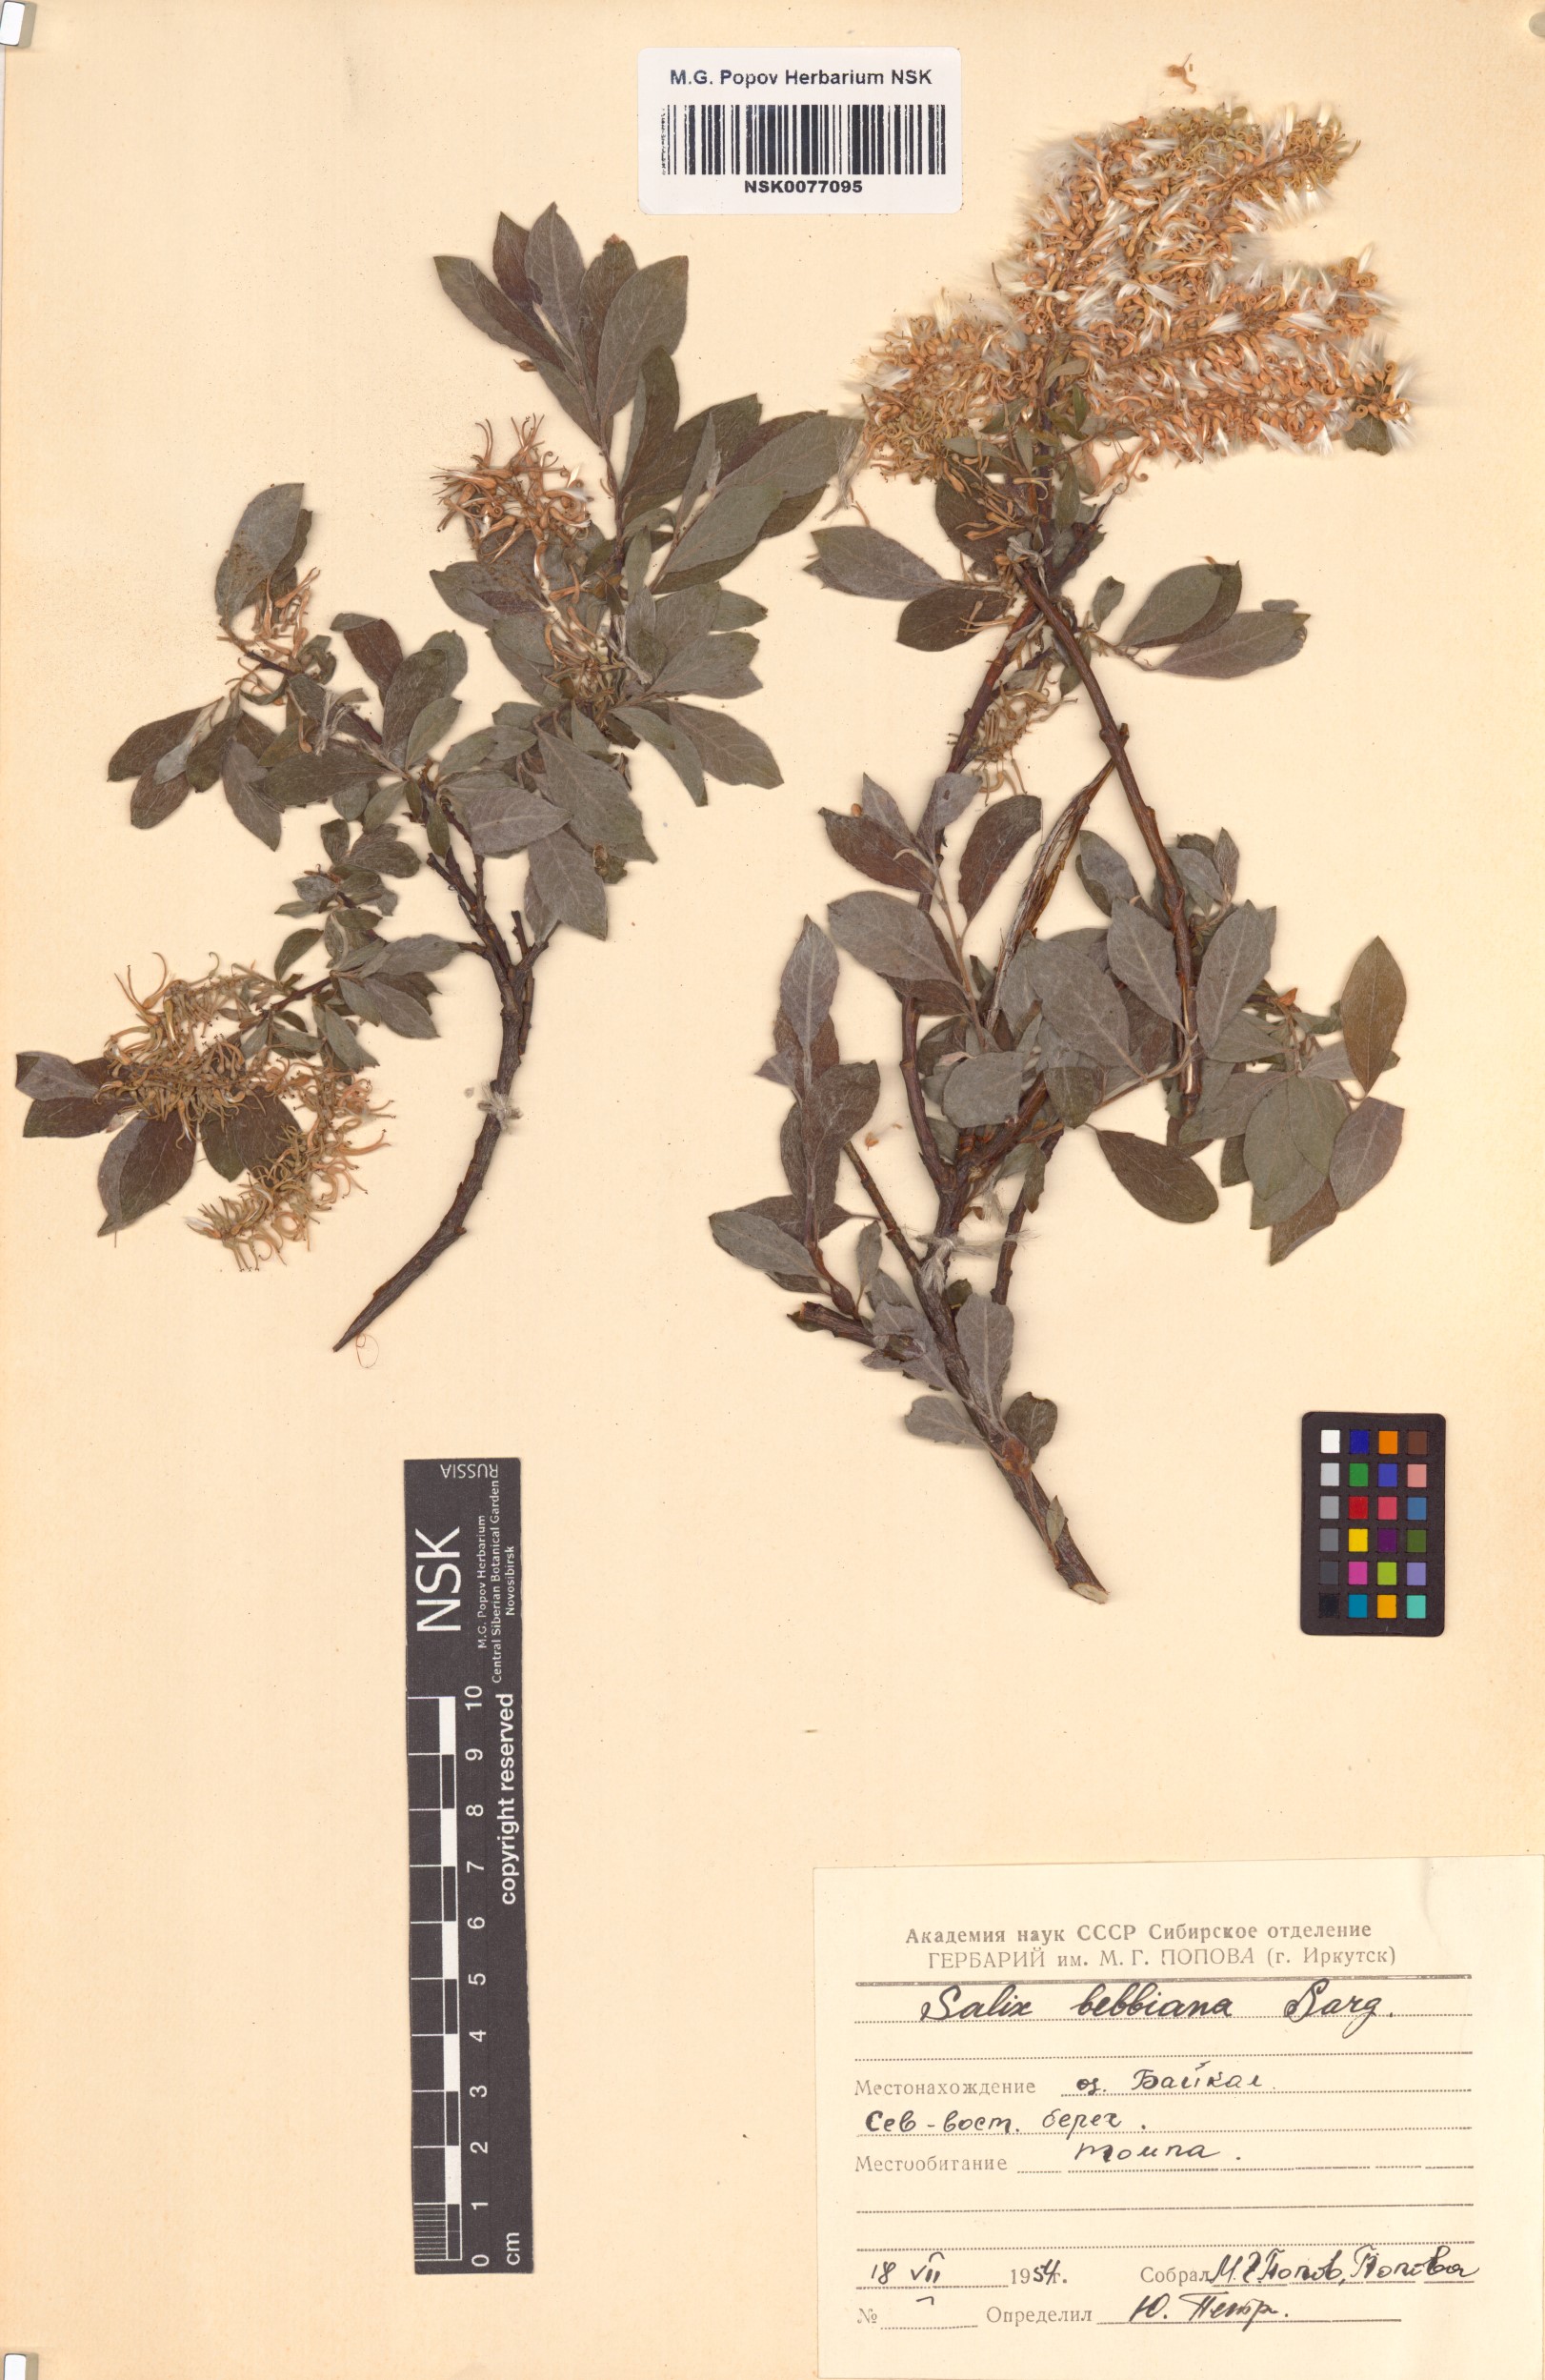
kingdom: Plantae
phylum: Tracheophyta
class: Magnoliopsida
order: Malpighiales
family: Salicaceae
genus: Salix
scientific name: Salix bebbiana
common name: Bebb's willow
